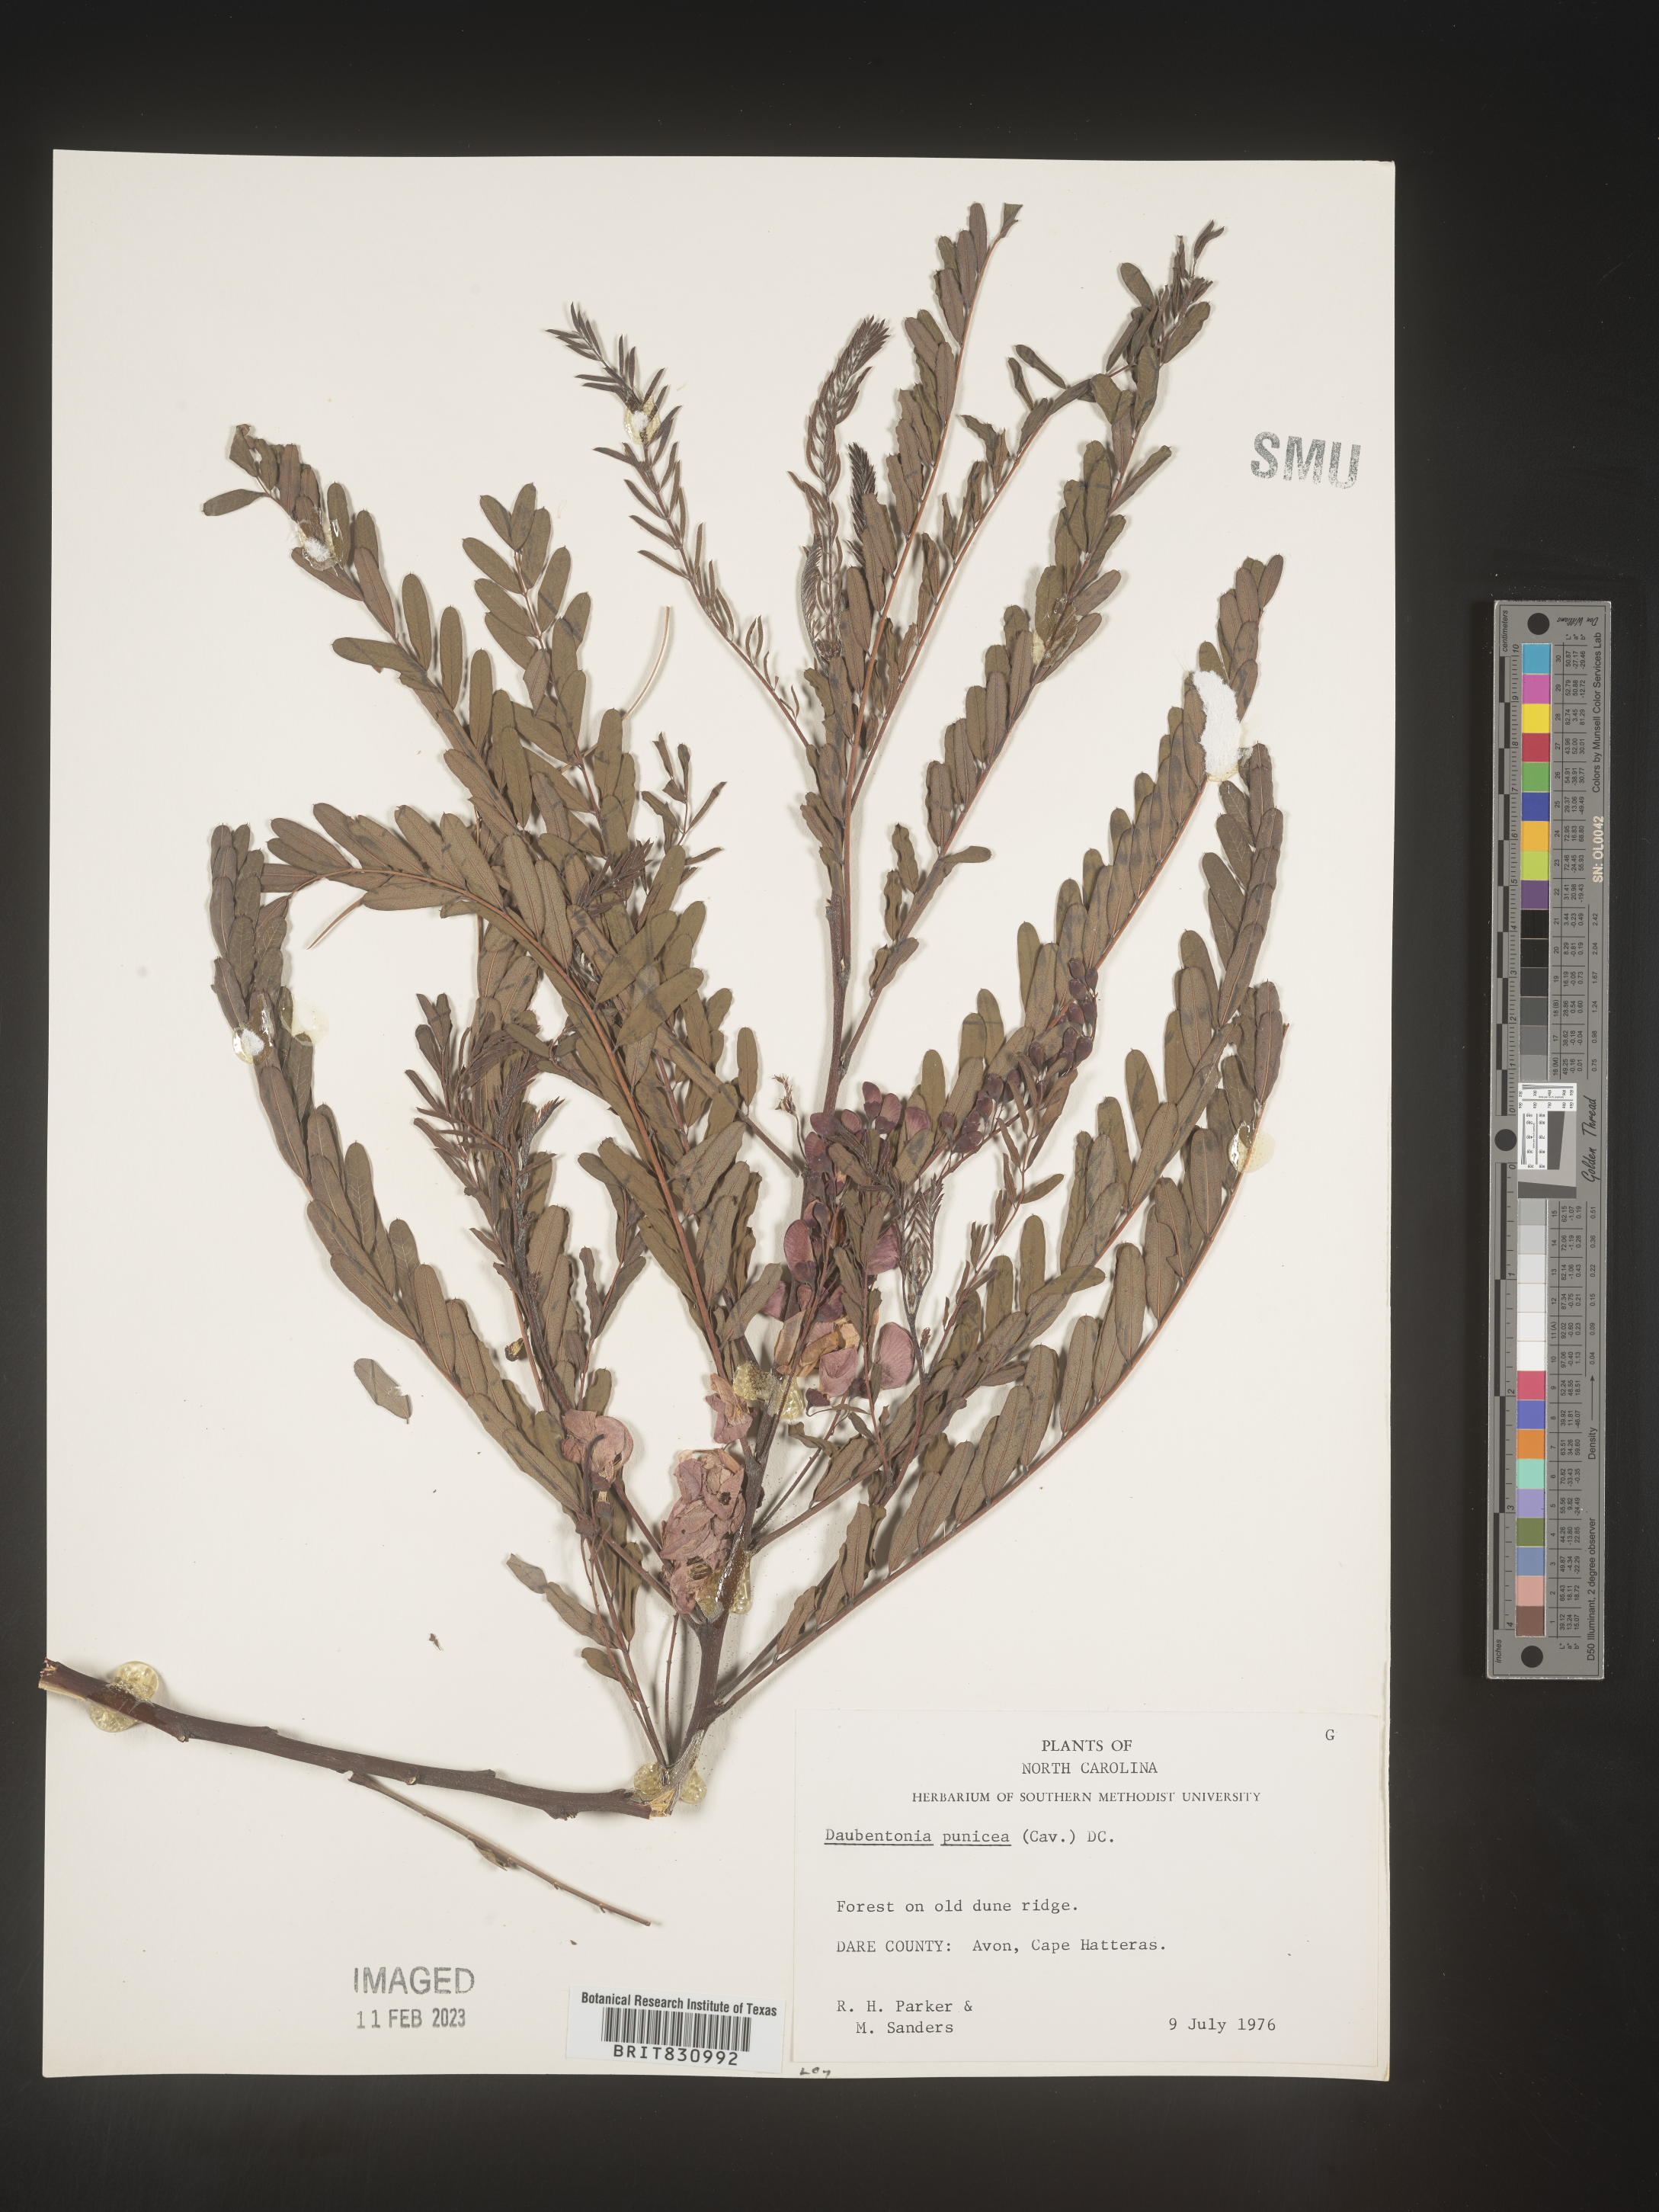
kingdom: Plantae
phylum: Tracheophyta
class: Magnoliopsida
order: Fabales
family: Fabaceae
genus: Sesbania
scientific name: Sesbania punicea
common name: Rattlebox
